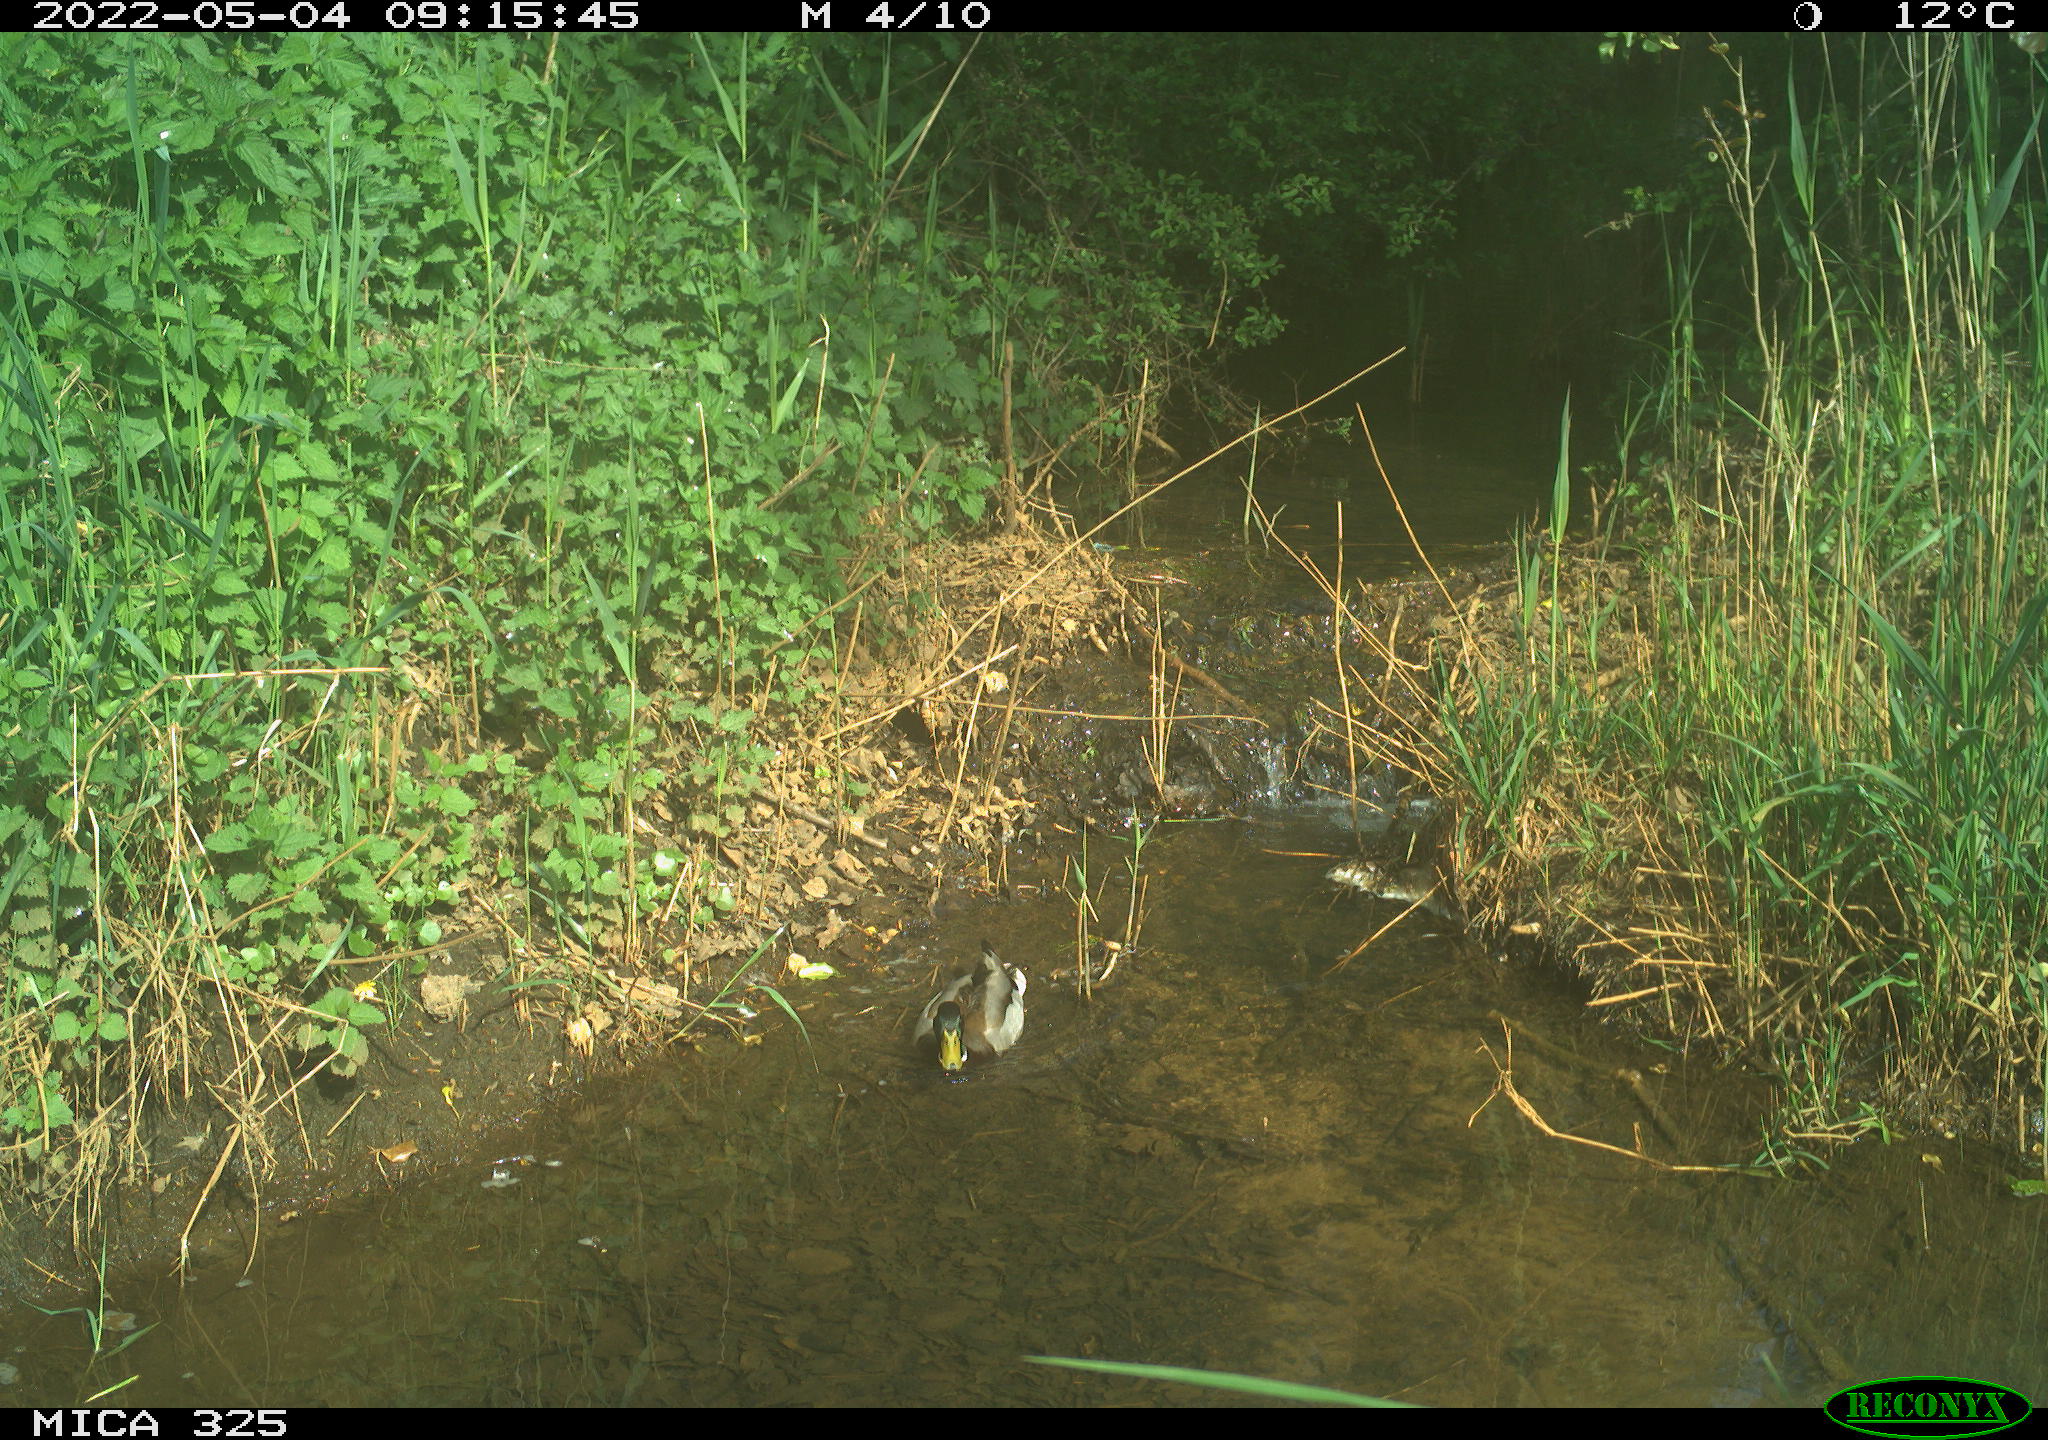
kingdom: Animalia
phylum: Chordata
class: Aves
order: Anseriformes
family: Anatidae
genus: Anas
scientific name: Anas platyrhynchos
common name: Mallard
